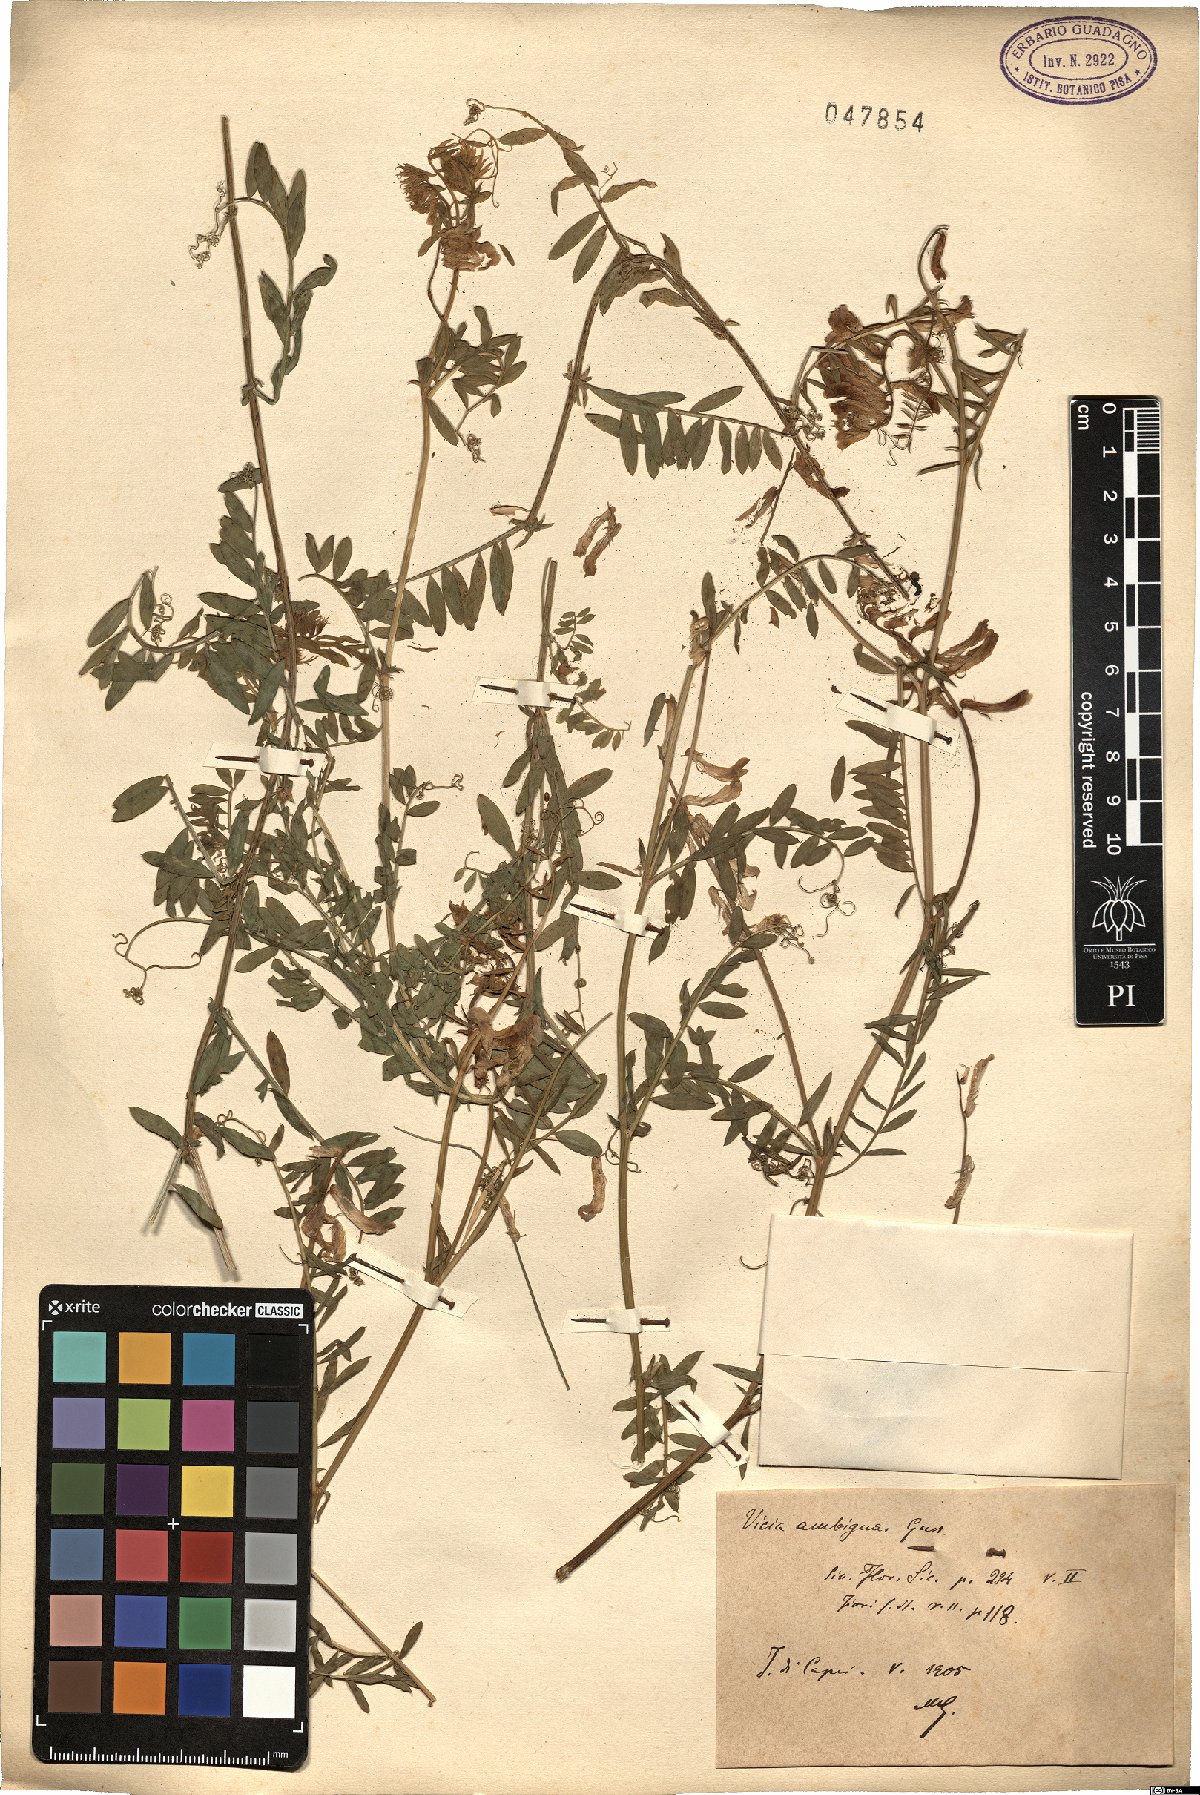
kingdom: Plantae
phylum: Tracheophyta
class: Magnoliopsida
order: Fabales
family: Fabaceae
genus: Vicia
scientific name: Vicia villosa
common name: Fodder vetch
